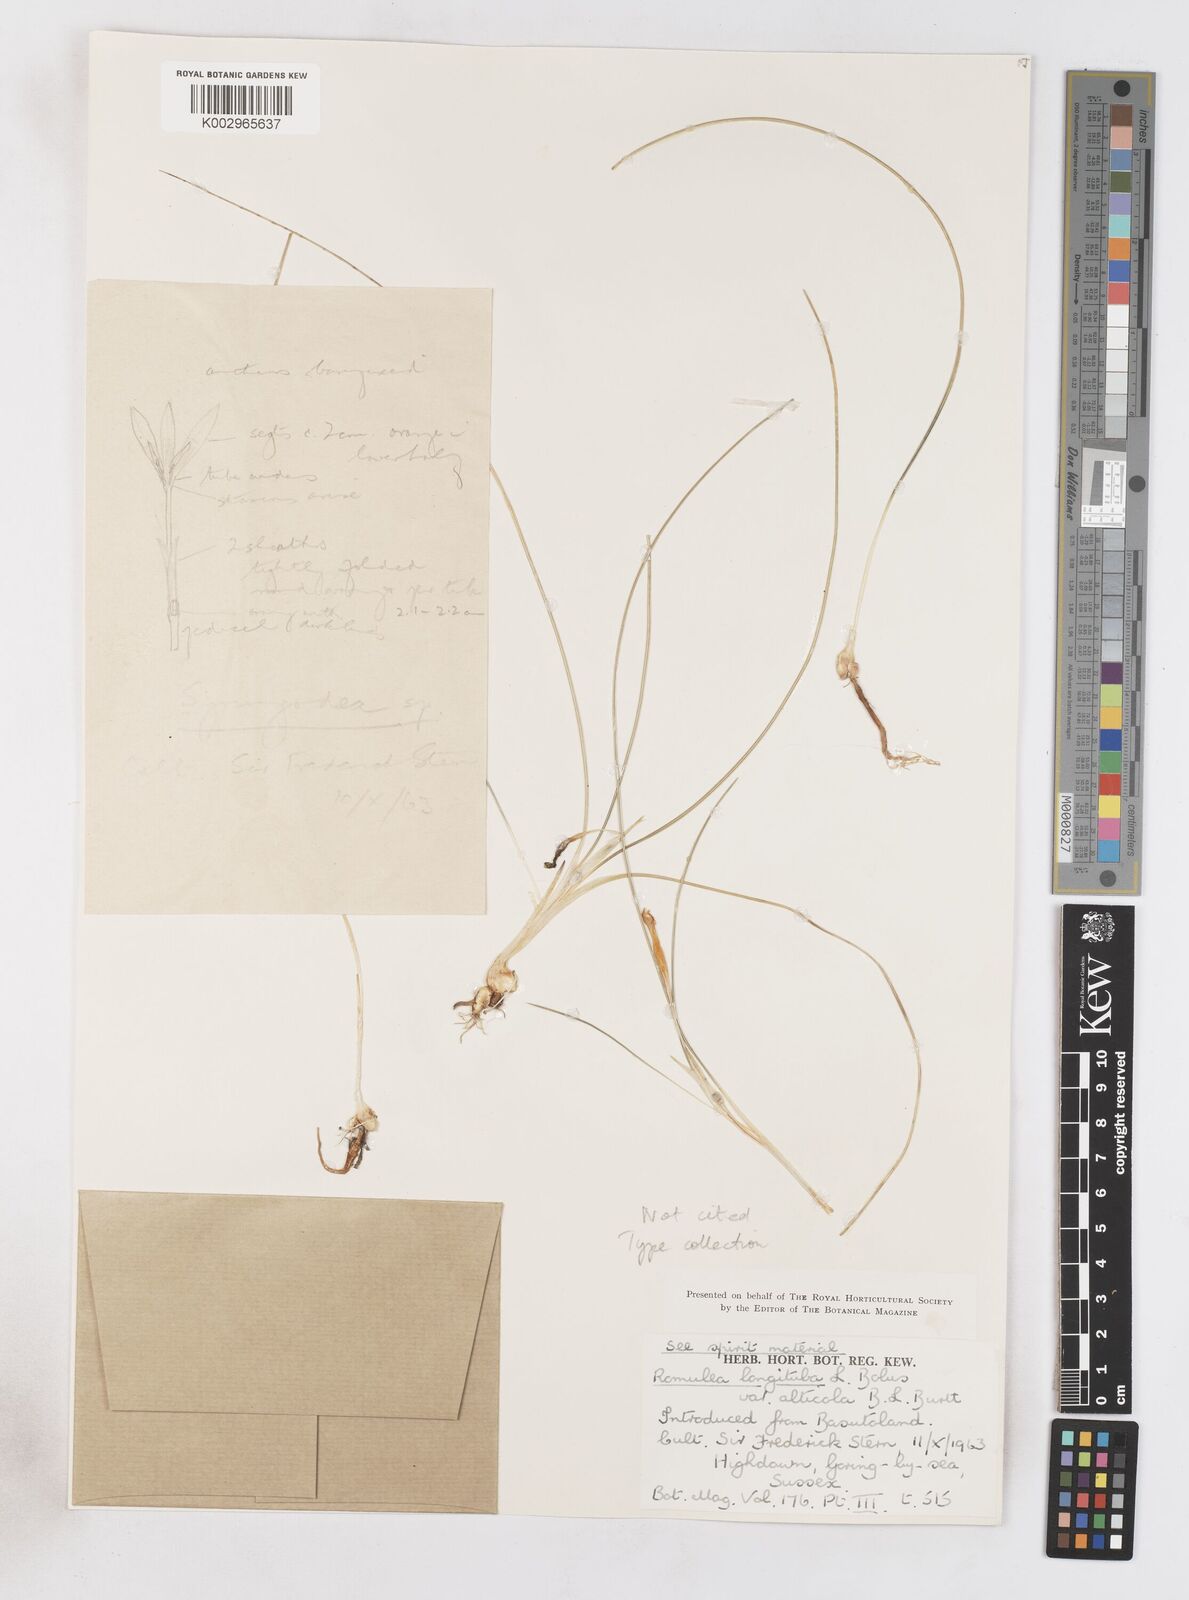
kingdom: Plantae
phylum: Tracheophyta
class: Liliopsida
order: Asparagales
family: Iridaceae
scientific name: Iridaceae
